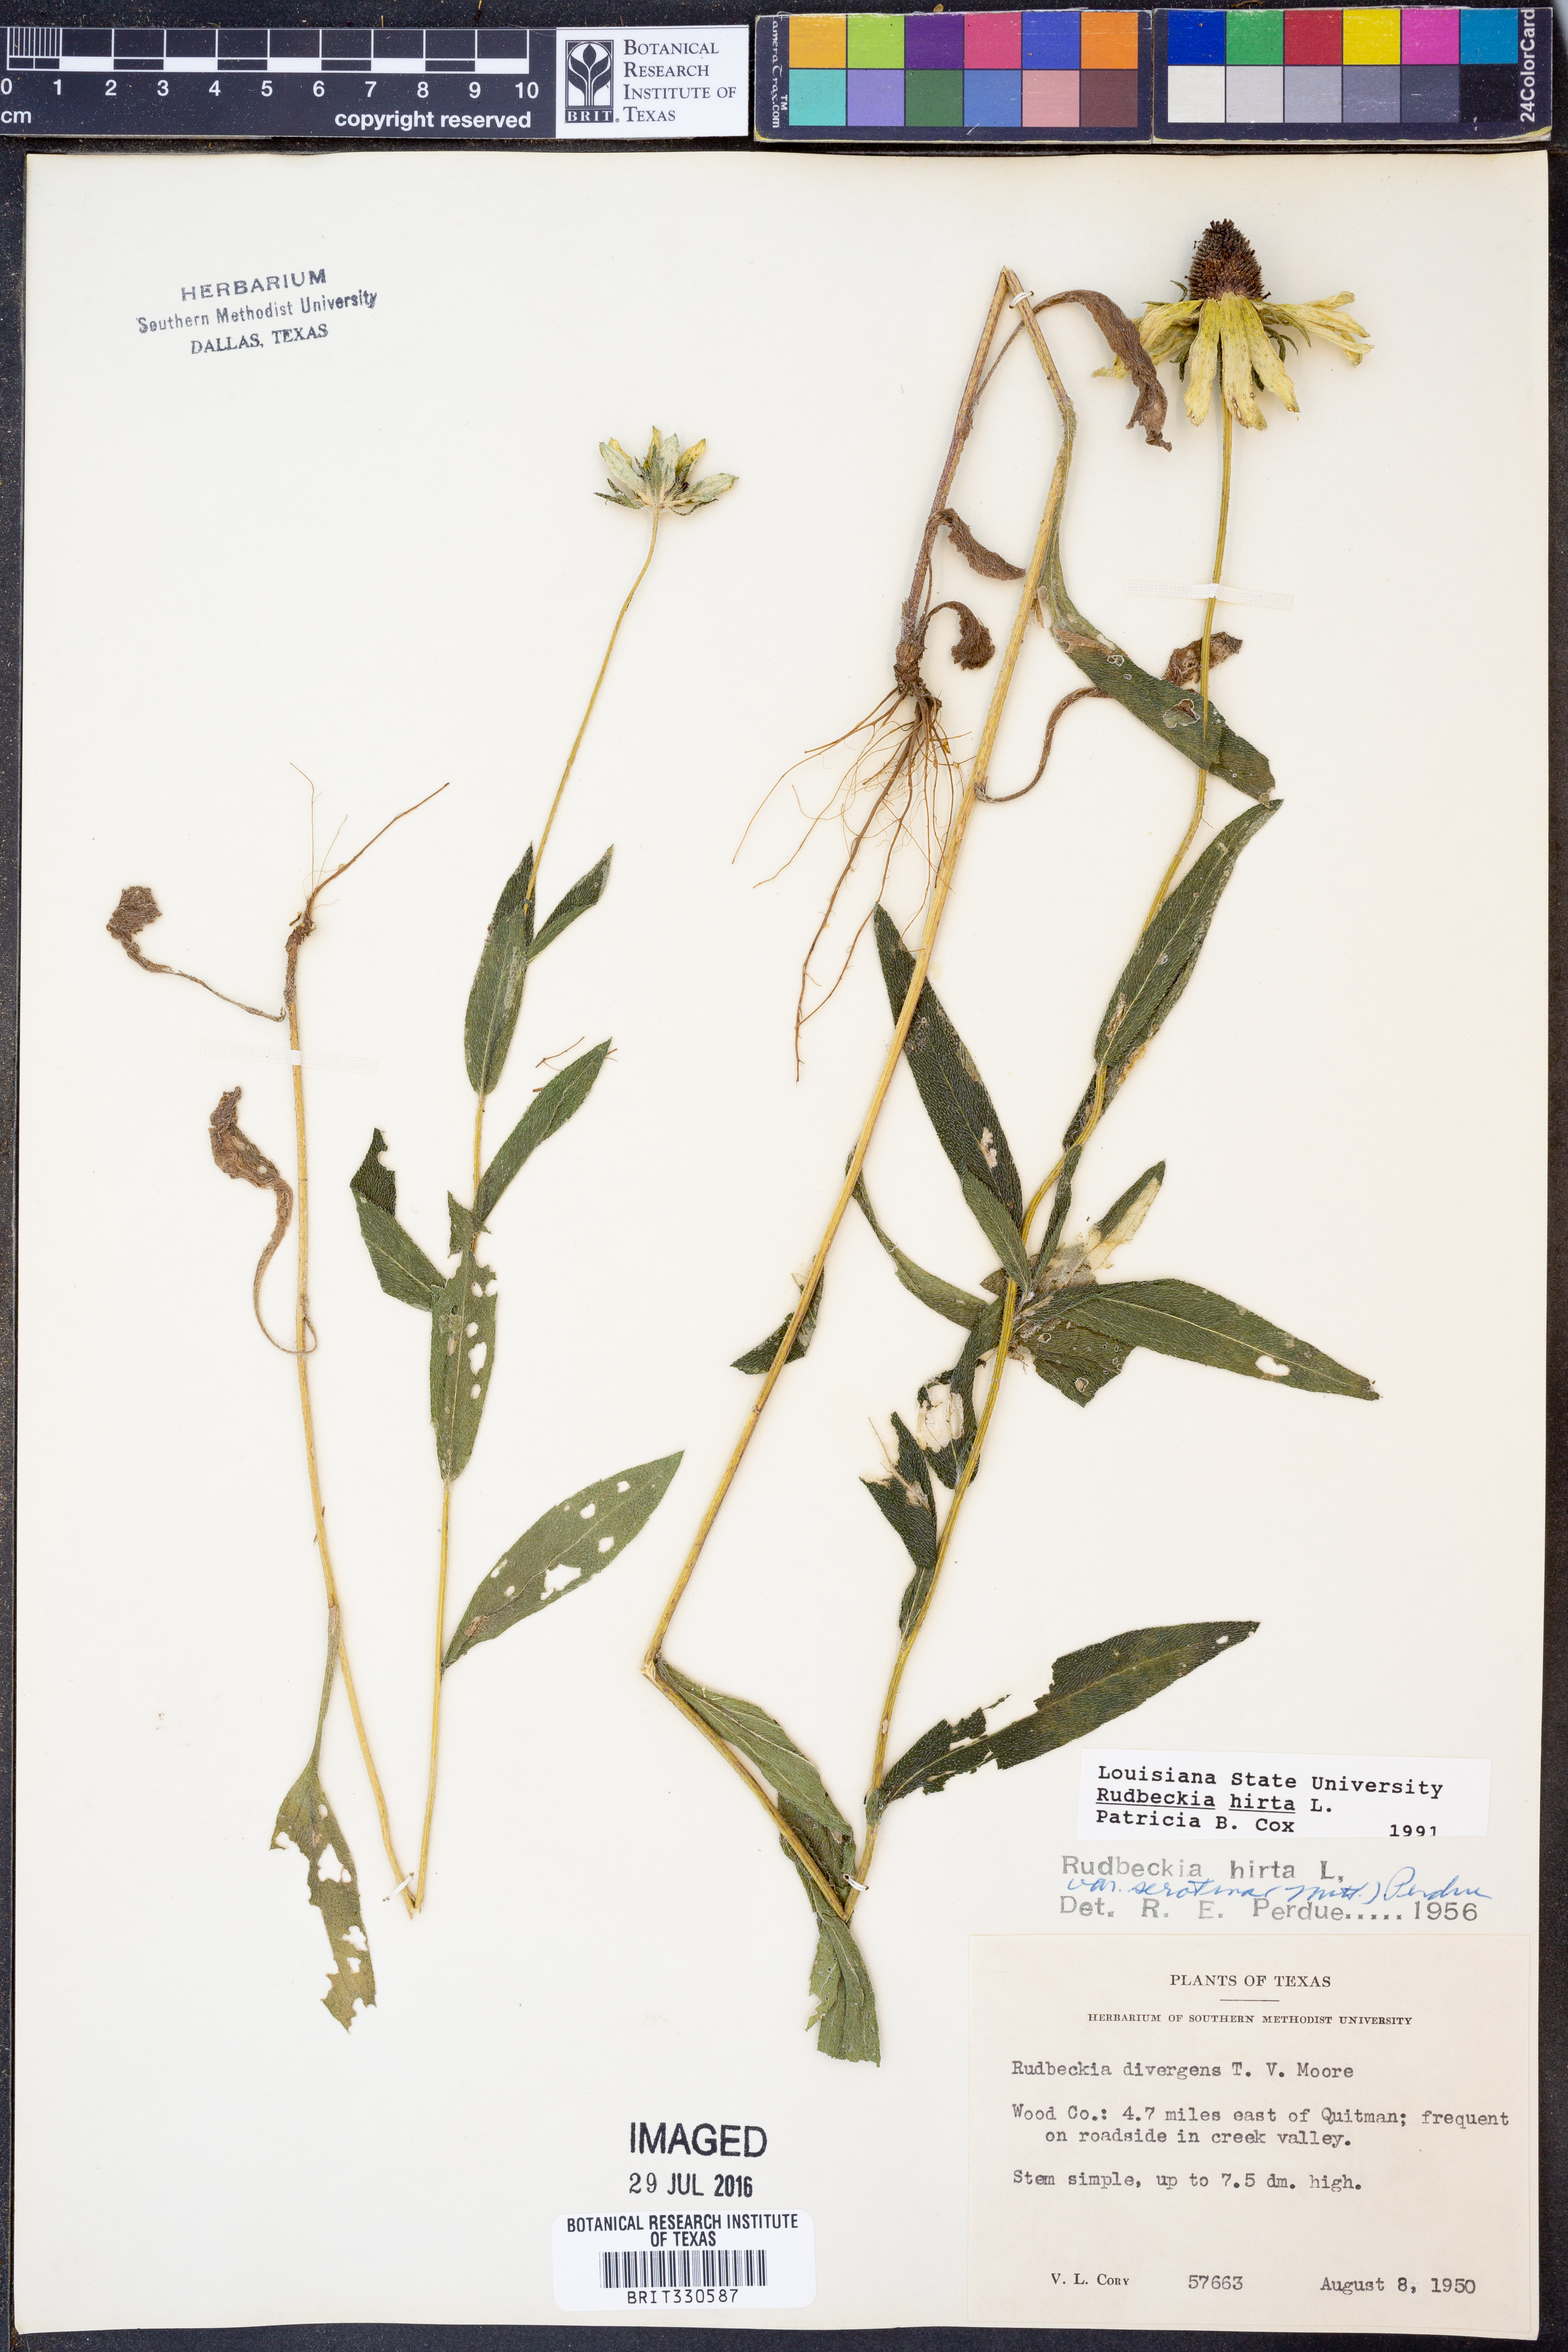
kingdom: Plantae
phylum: Tracheophyta
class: Magnoliopsida
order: Asterales
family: Asteraceae
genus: Rudbeckia
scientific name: Rudbeckia hirta
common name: Black-eyed-susan
